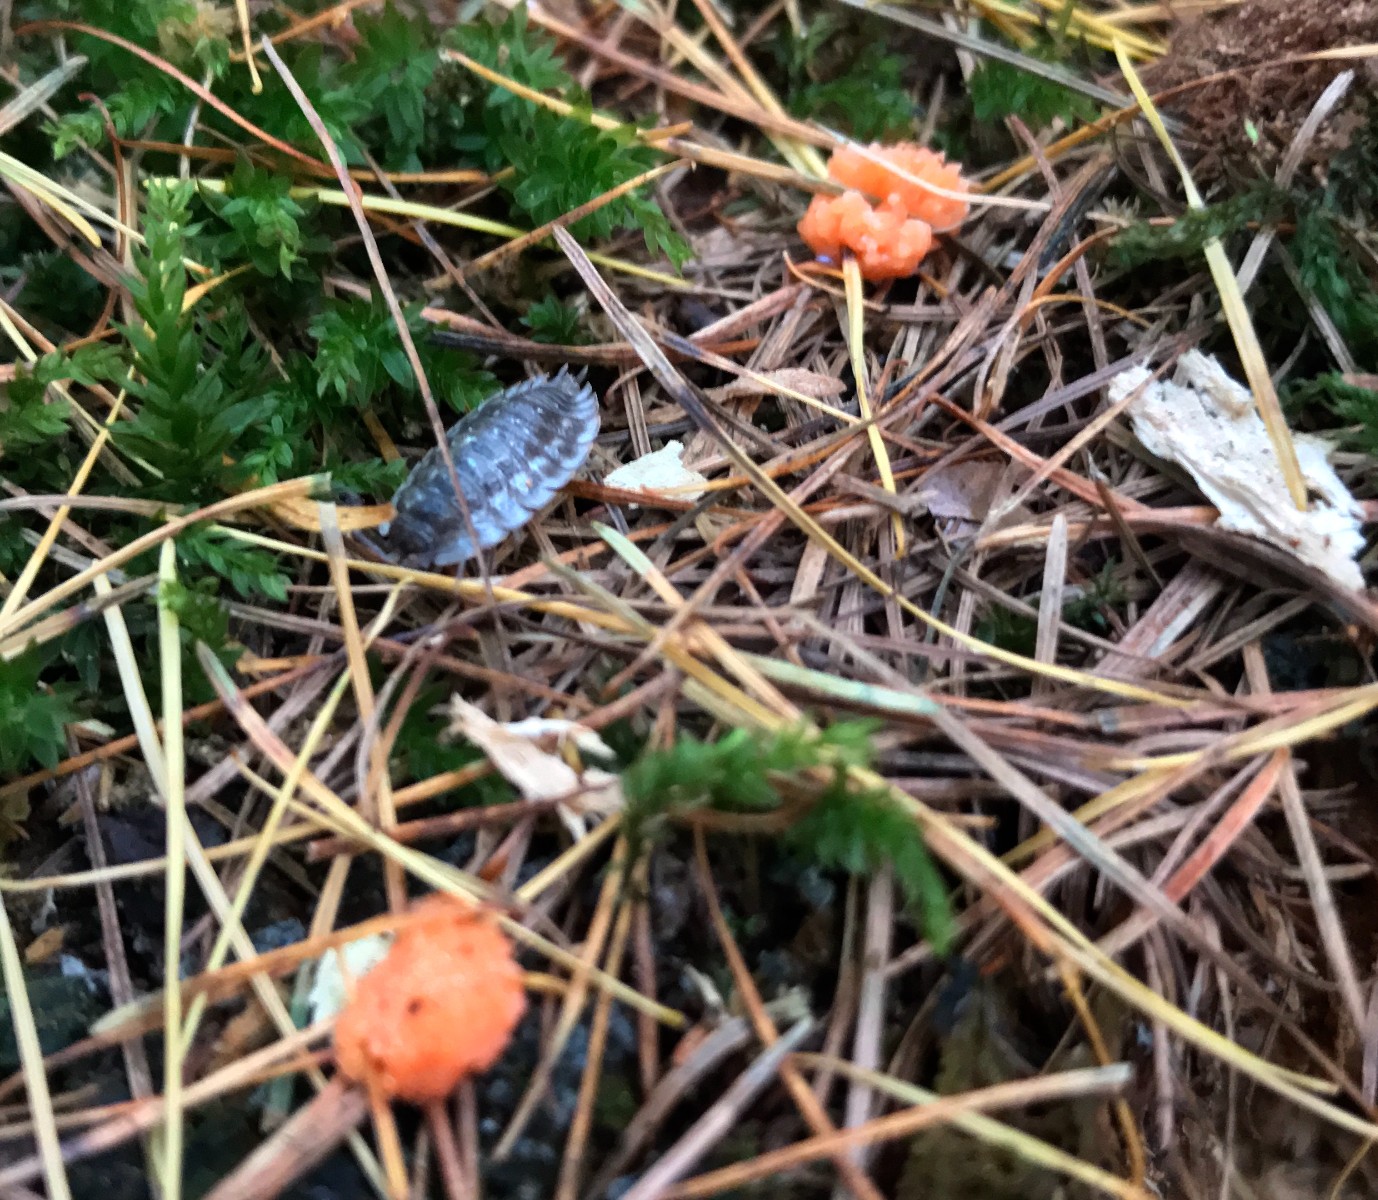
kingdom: Protozoa
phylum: Mycetozoa
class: Myxomycetes
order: Cribrariales
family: Tubiferaceae
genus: Tubifera
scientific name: Tubifera ferruginosa
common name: kanel-støvrør
